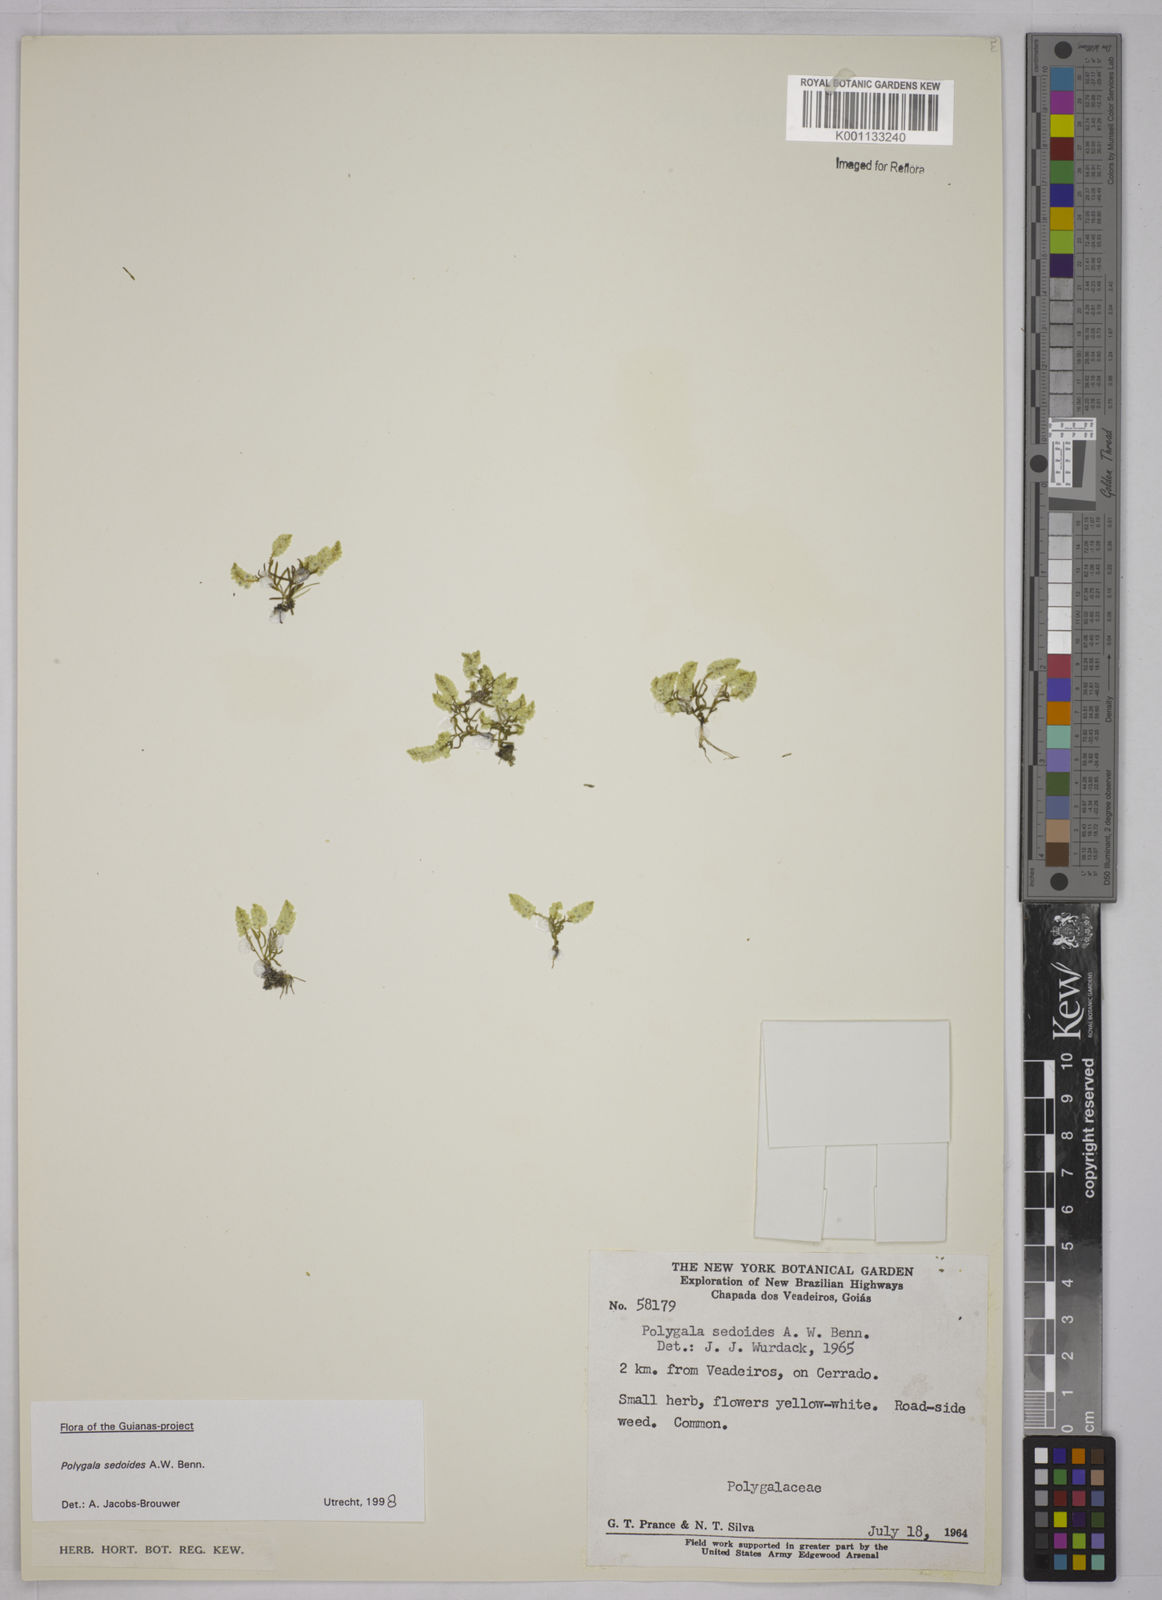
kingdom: Plantae
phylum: Tracheophyta
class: Magnoliopsida
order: Fabales
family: Polygalaceae
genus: Polygala
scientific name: Polygala sedoides
